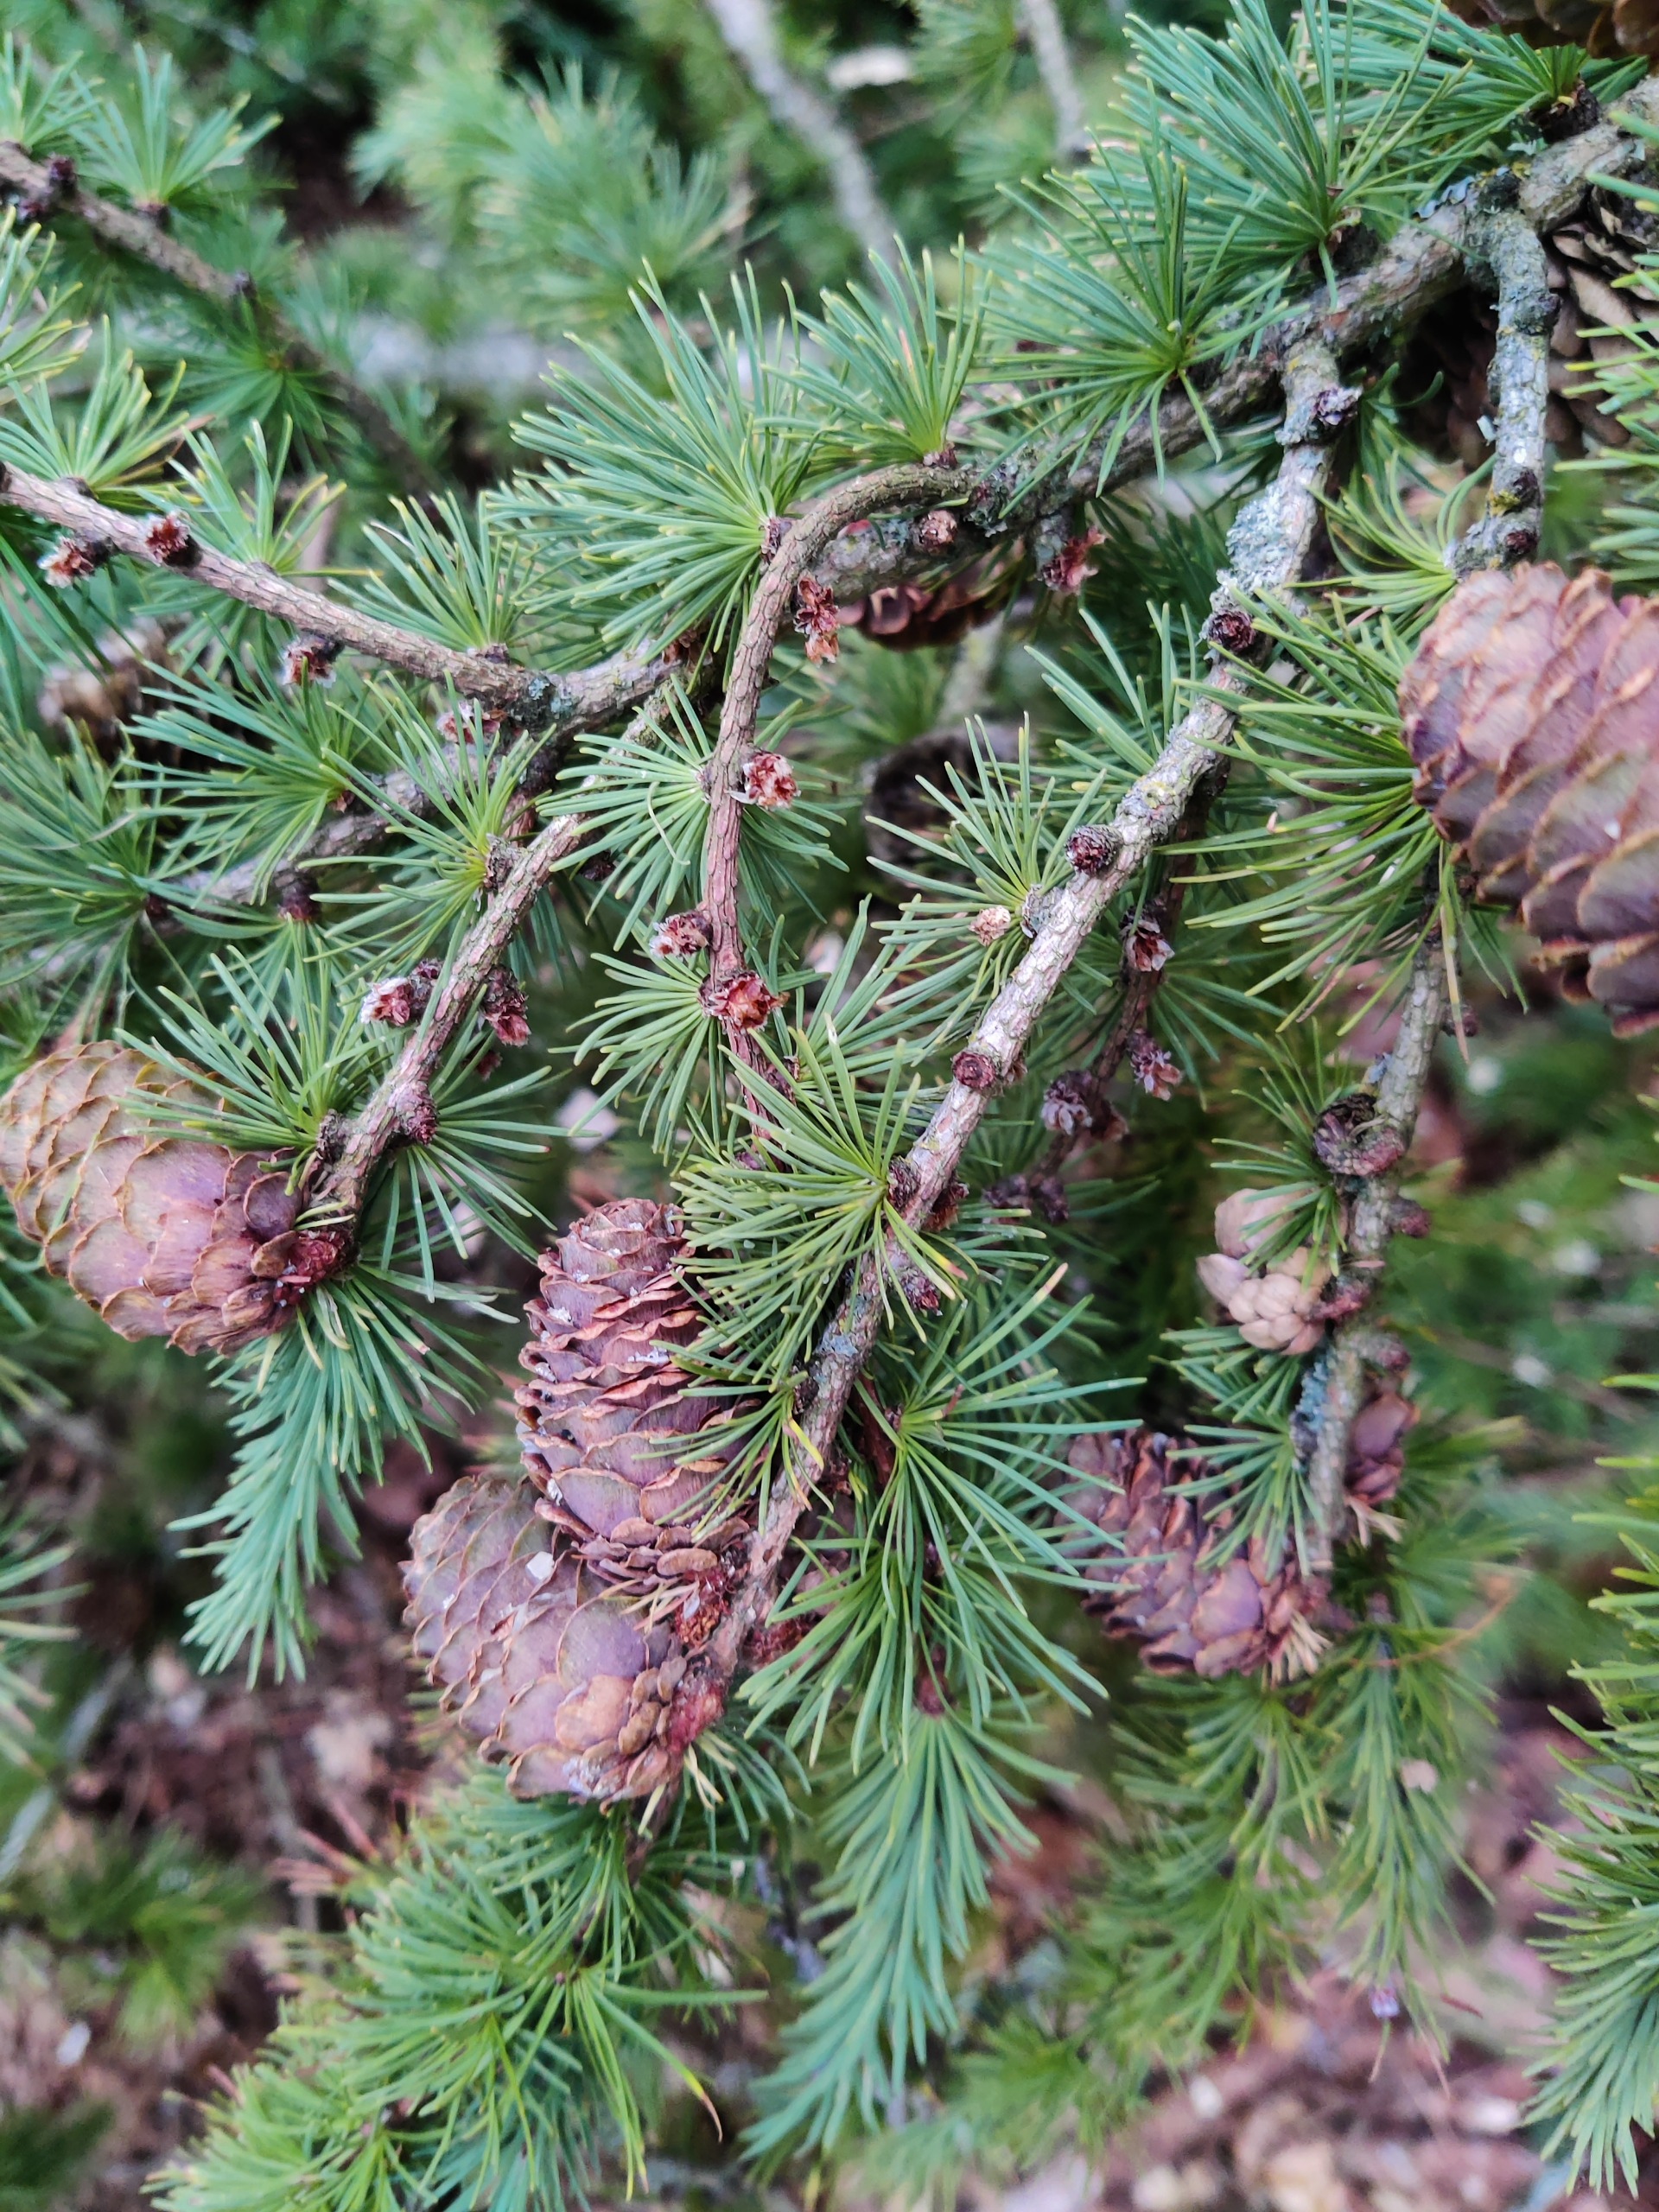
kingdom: Plantae
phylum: Tracheophyta
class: Pinopsida
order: Pinales
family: Pinaceae
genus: Larix
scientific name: Larix kaempferi
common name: Japansk lærk
